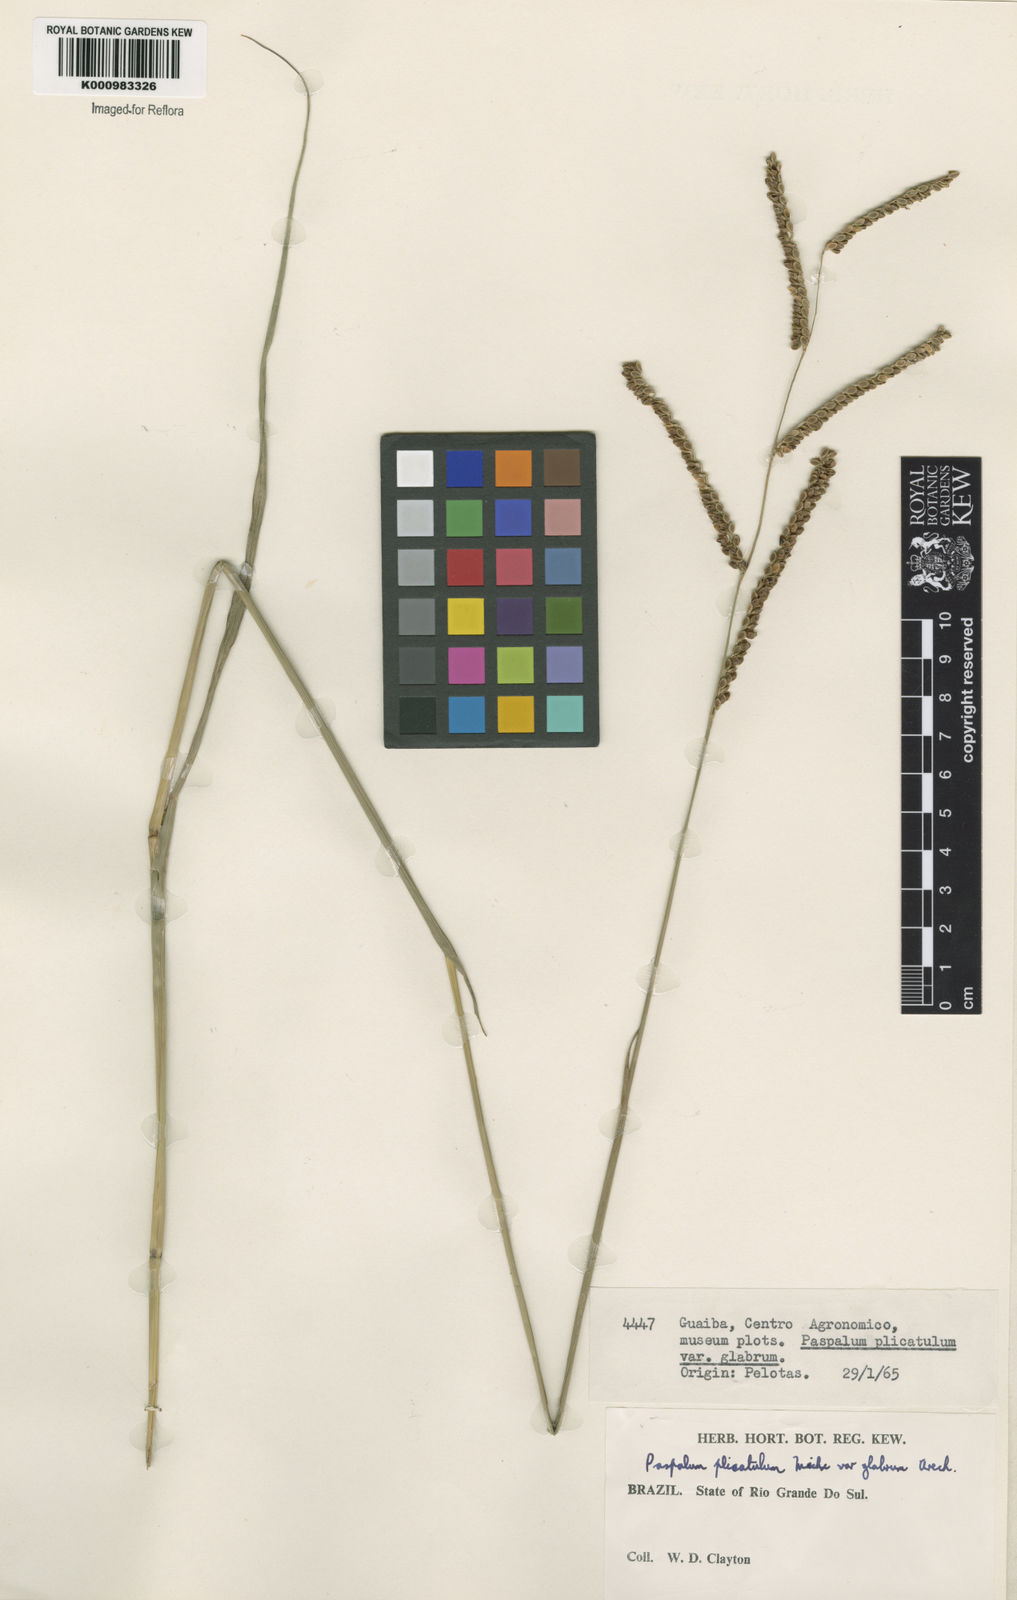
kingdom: Plantae
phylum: Tracheophyta
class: Liliopsida
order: Poales
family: Poaceae
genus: Paspalum
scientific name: Paspalum plicatulum
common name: Top paspalum
